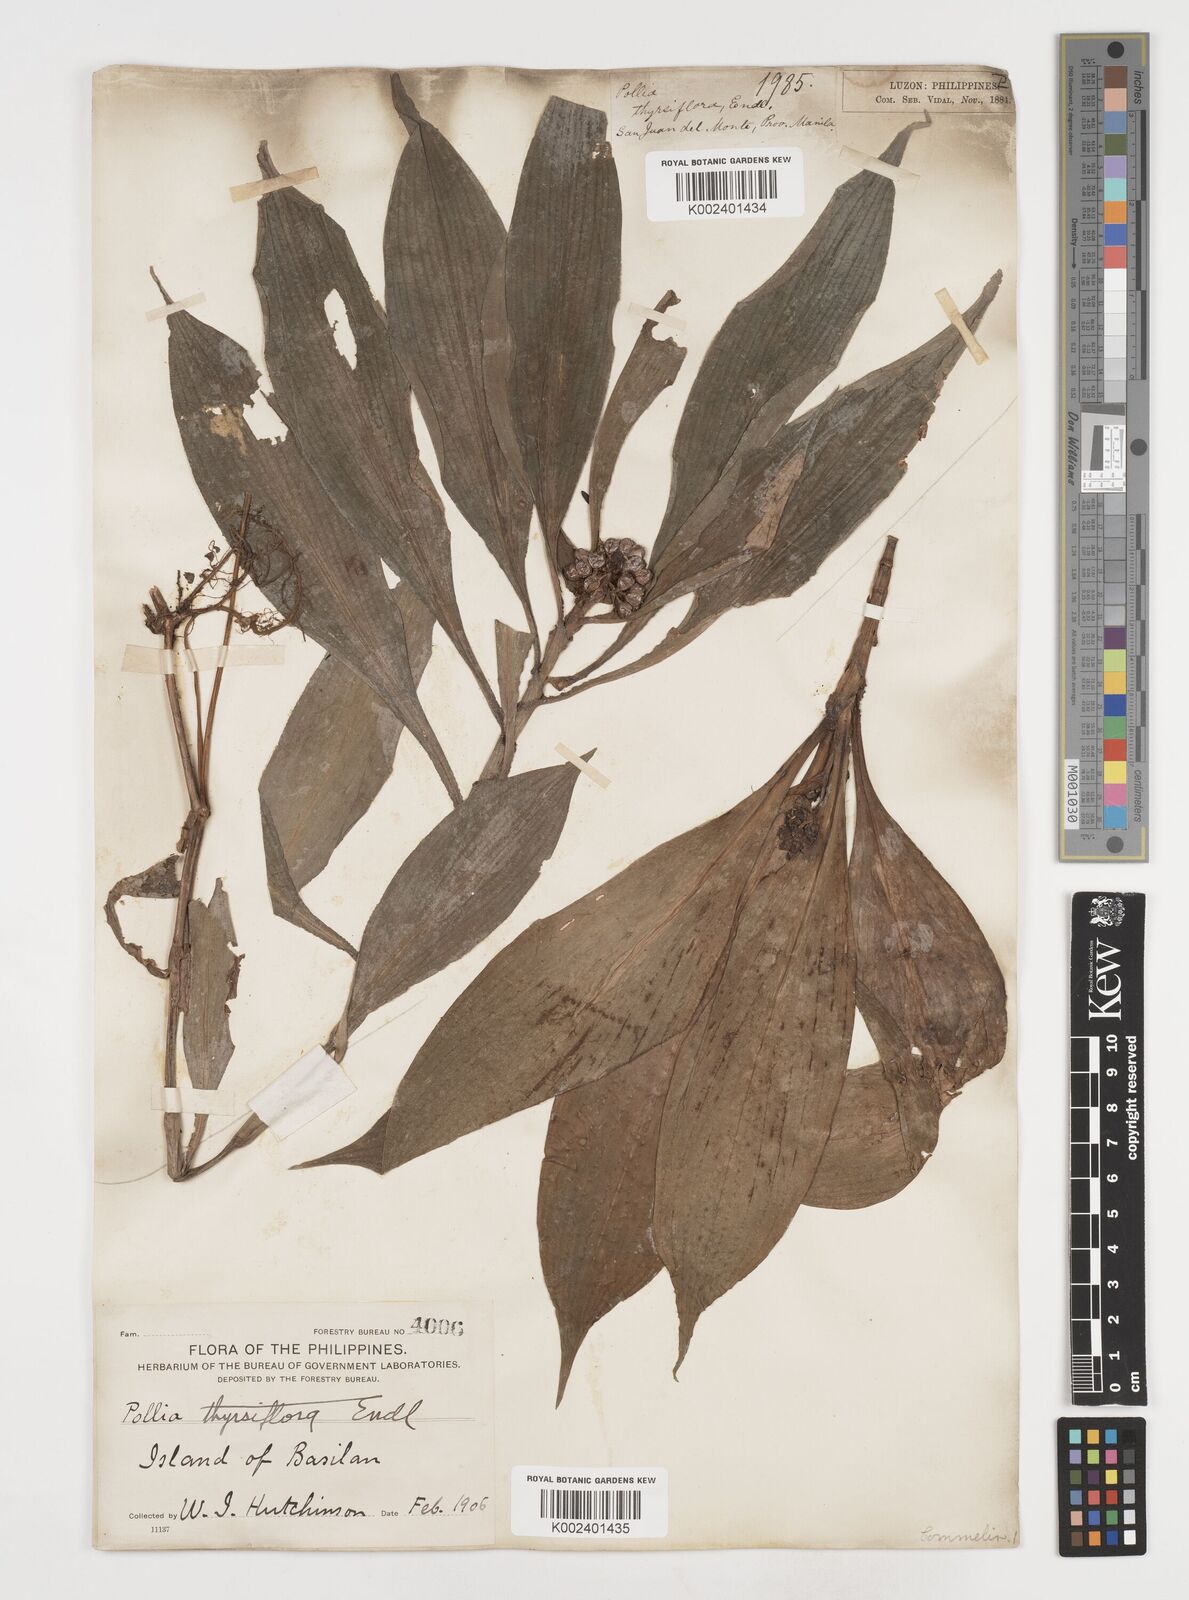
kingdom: Plantae
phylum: Tracheophyta
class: Liliopsida
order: Commelinales
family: Commelinaceae
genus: Pollia
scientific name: Pollia thyrsiflora
